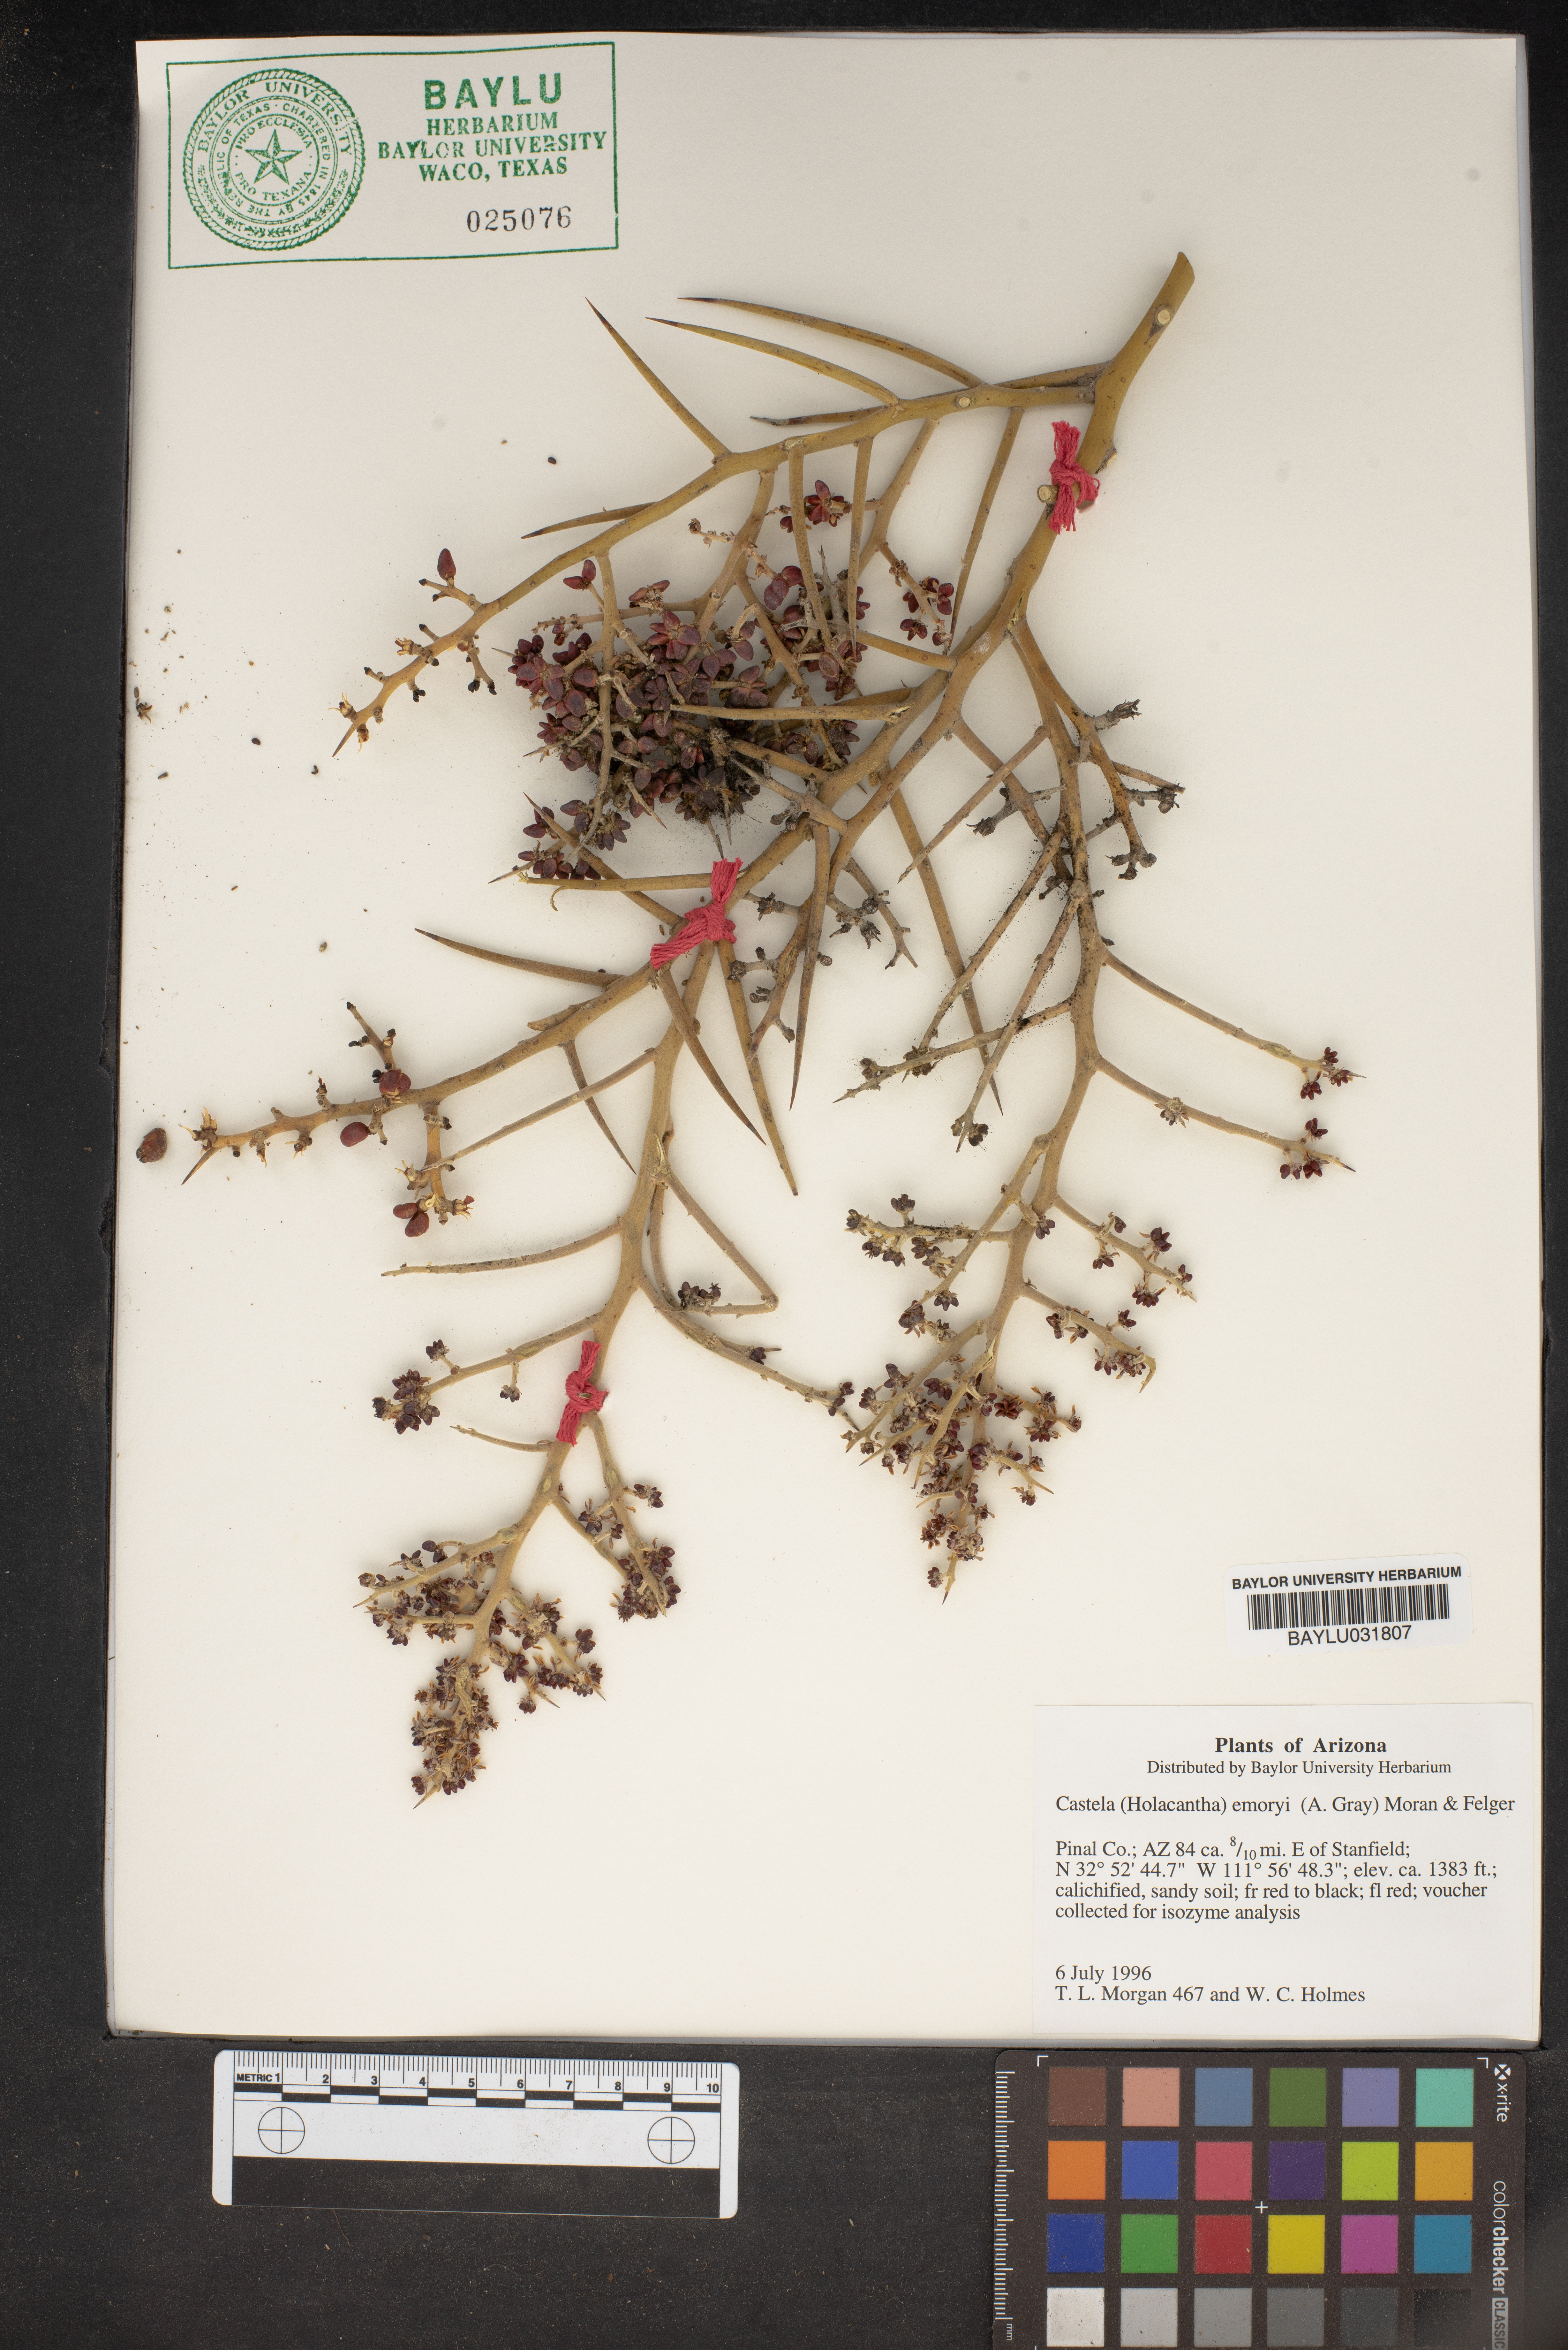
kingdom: Plantae
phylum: Tracheophyta
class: Magnoliopsida
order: Sapindales
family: Simaroubaceae
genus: Holacantha
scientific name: Holacantha emoryi
